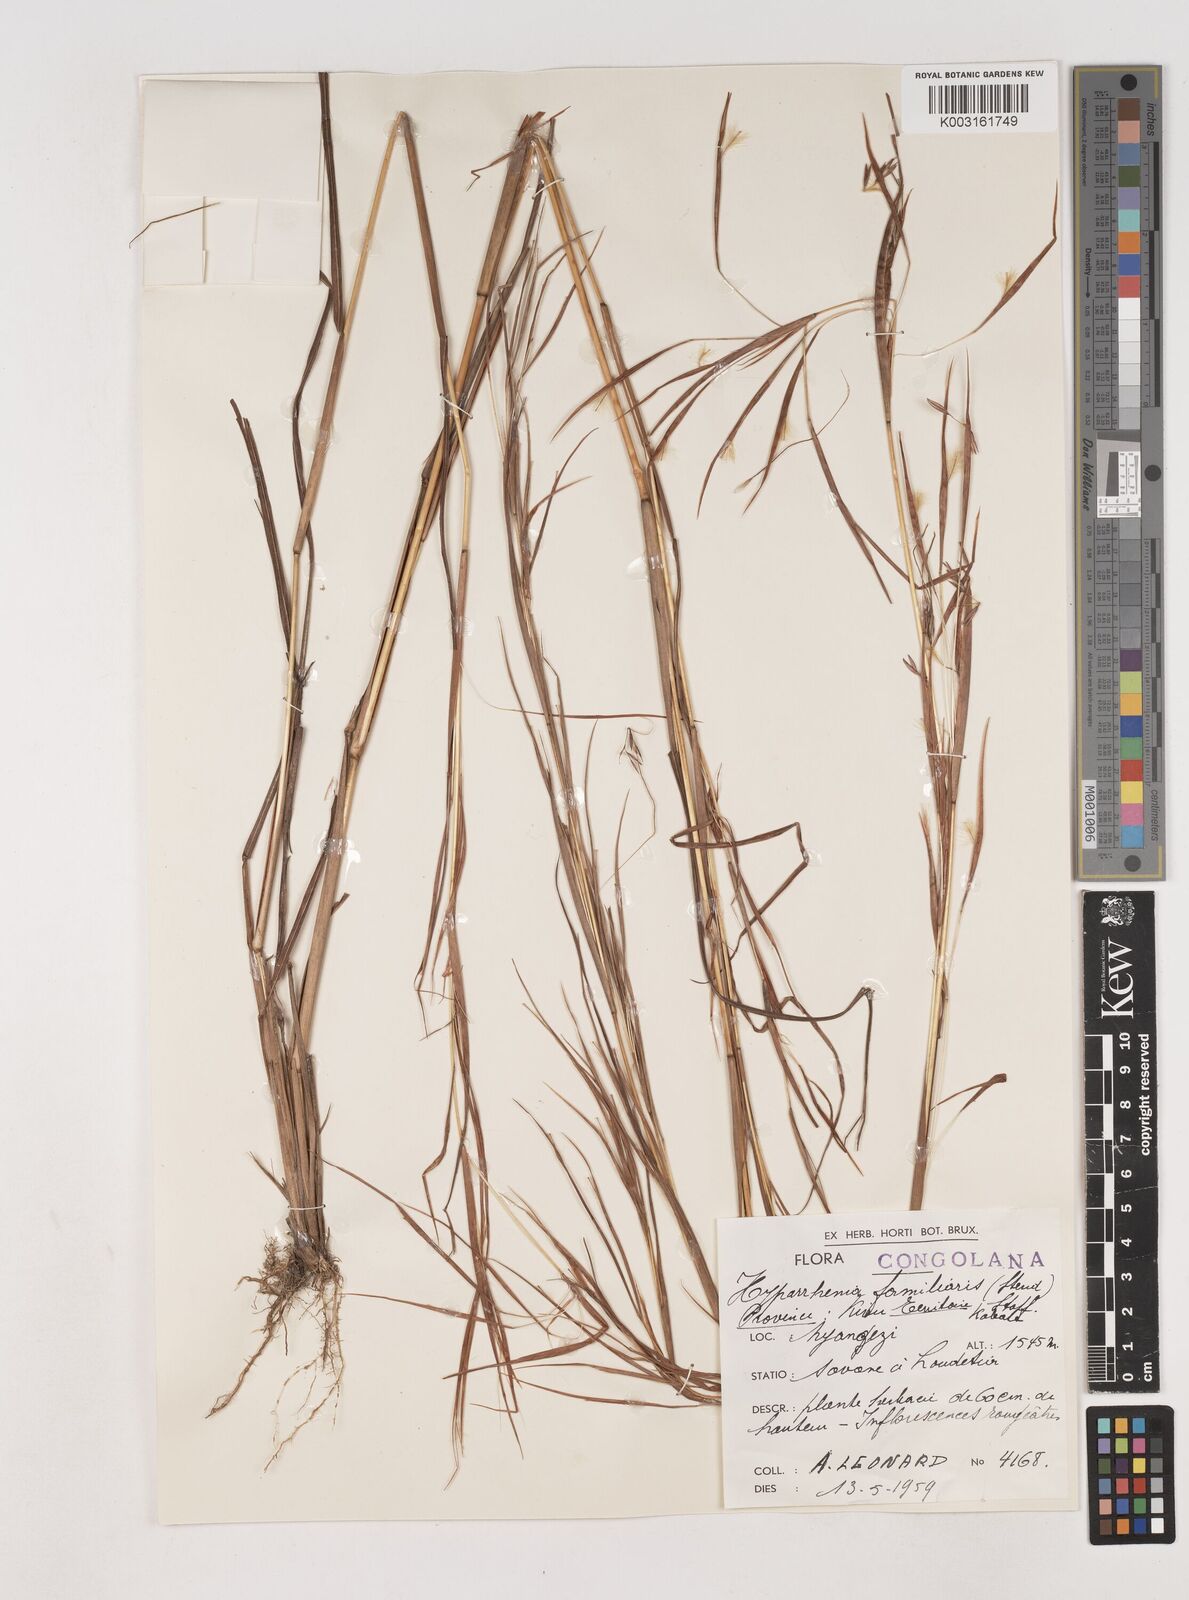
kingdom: Plantae
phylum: Tracheophyta
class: Liliopsida
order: Poales
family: Poaceae
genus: Hyparrhenia
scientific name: Hyparrhenia familiaris
